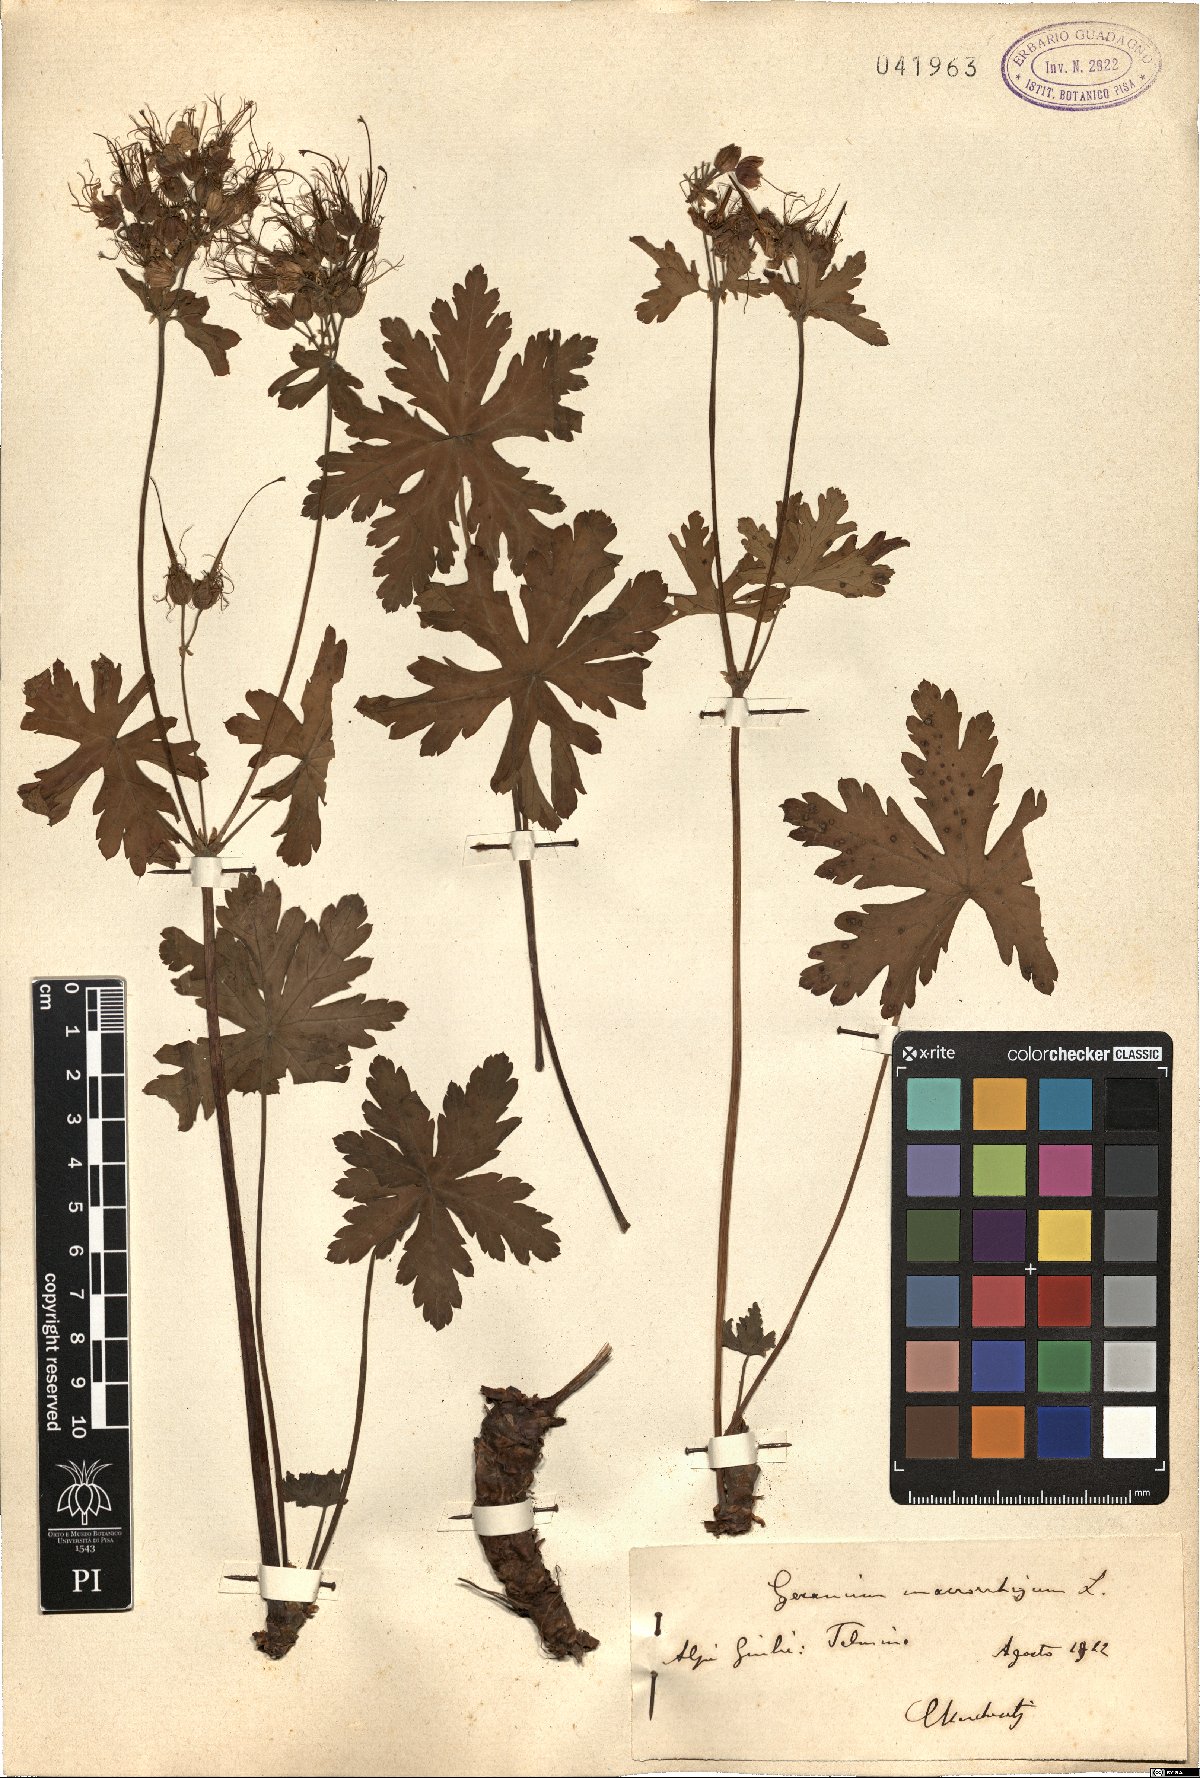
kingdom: Plantae
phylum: Tracheophyta
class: Magnoliopsida
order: Geraniales
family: Geraniaceae
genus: Geranium
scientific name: Geranium macrorrhizum
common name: Rock crane's-bill
